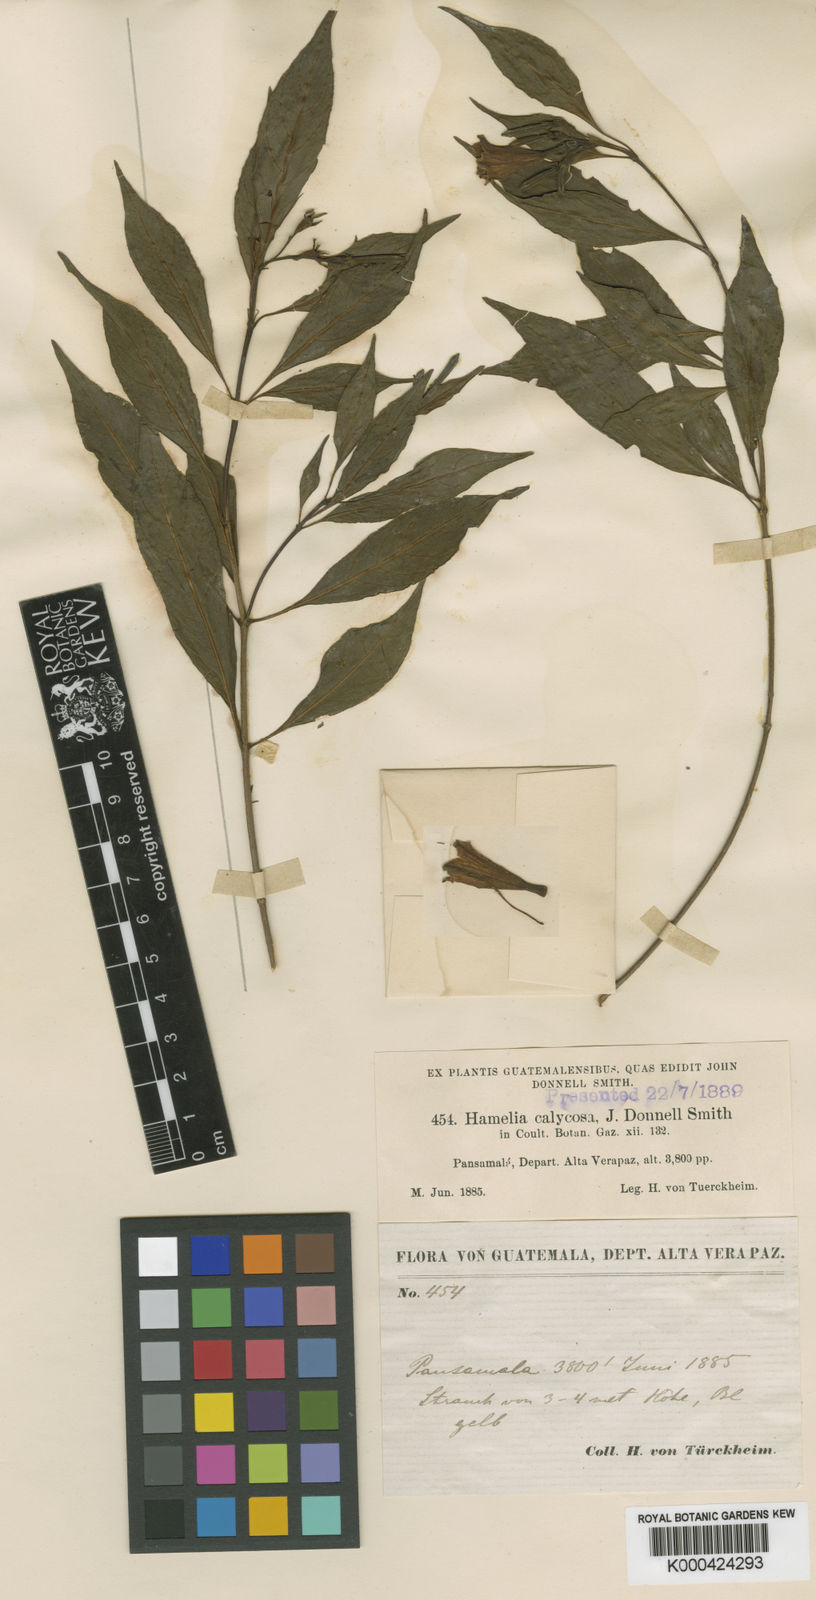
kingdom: Plantae
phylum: Tracheophyta
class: Magnoliopsida
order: Gentianales
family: Rubiaceae
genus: Hamelia
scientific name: Hamelia calycosa
